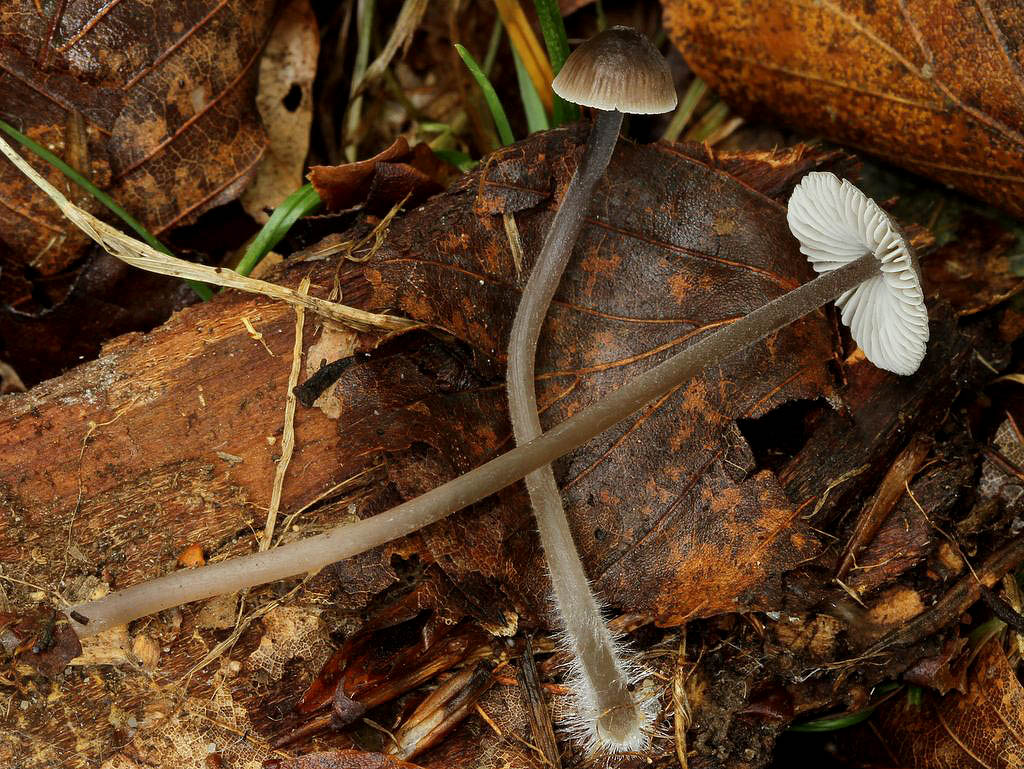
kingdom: Fungi
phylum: Basidiomycota
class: Agaricomycetes
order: Agaricales
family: Mycenaceae
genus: Mycena
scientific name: Mycena abramsii
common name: sommer-huesvamp
